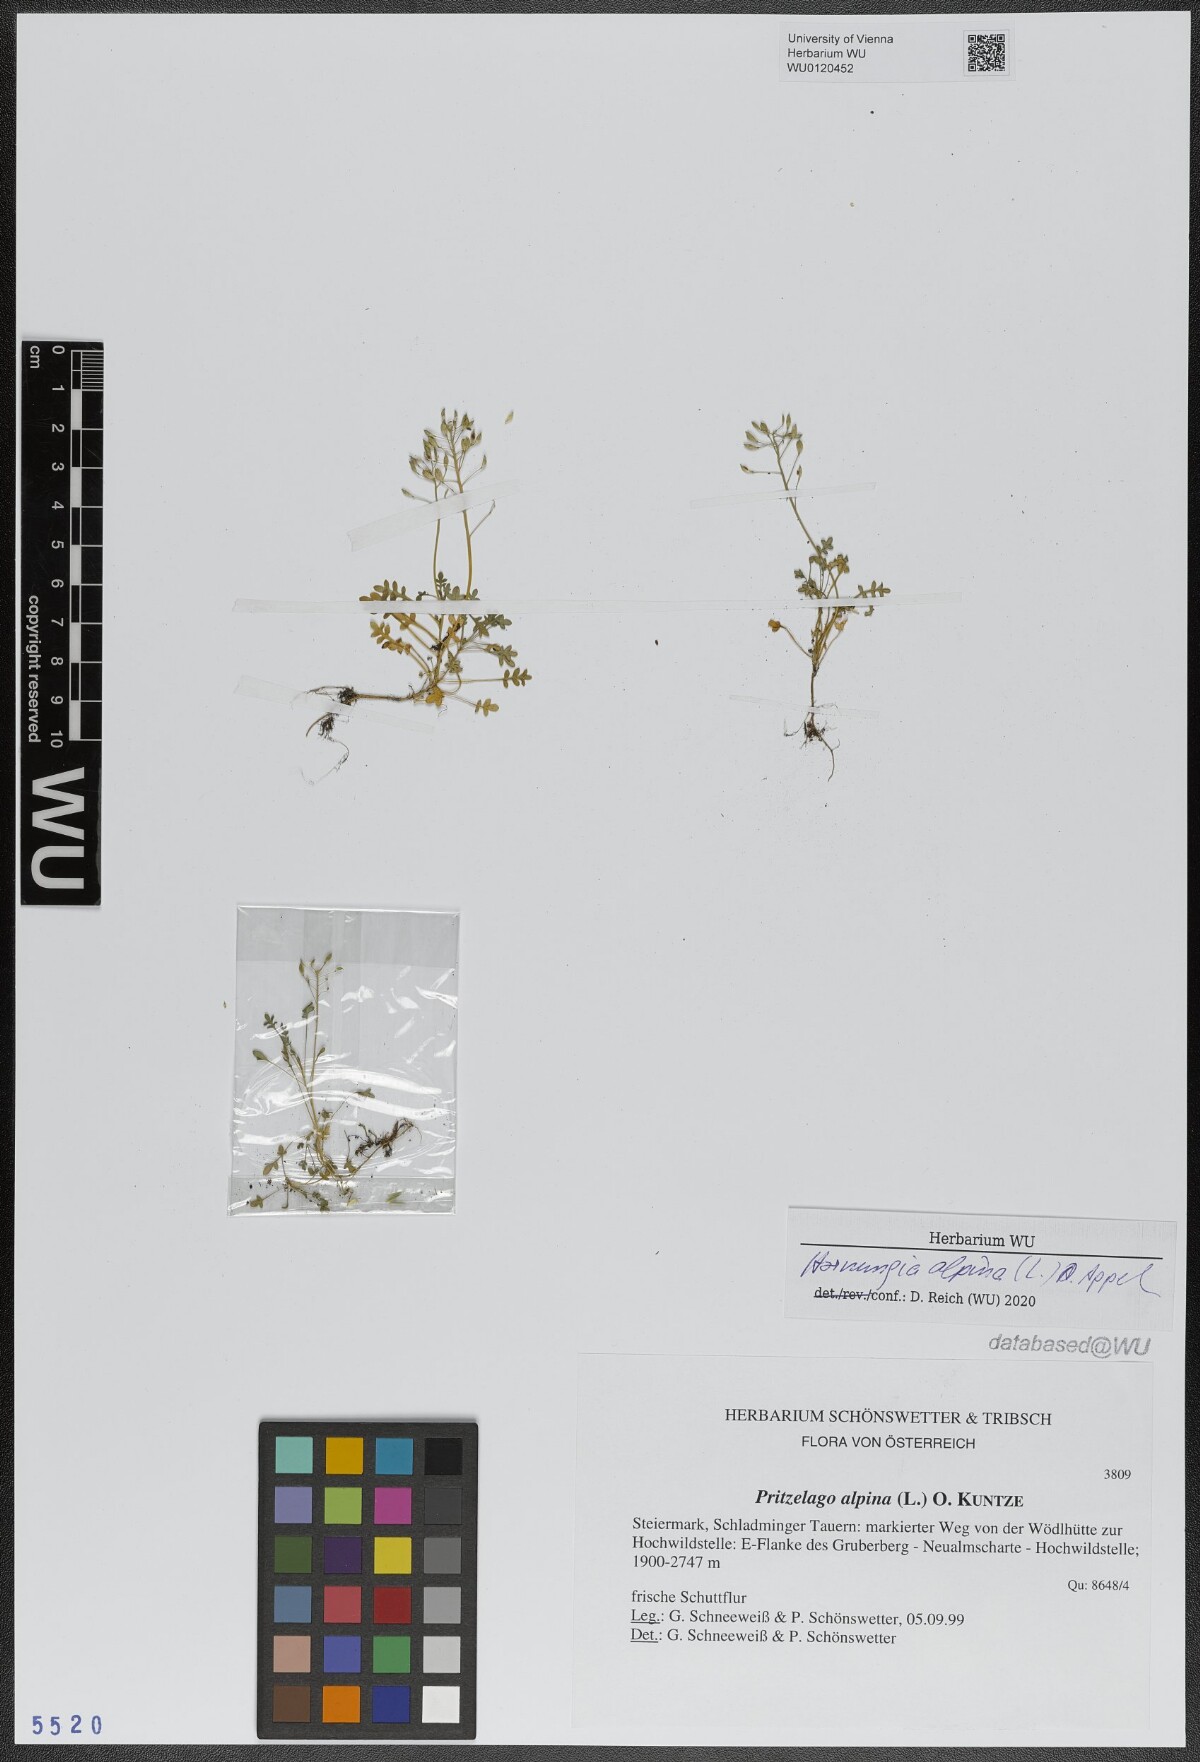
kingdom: Plantae
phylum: Tracheophyta
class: Magnoliopsida
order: Brassicales
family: Brassicaceae
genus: Hornungia
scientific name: Hornungia alpina
